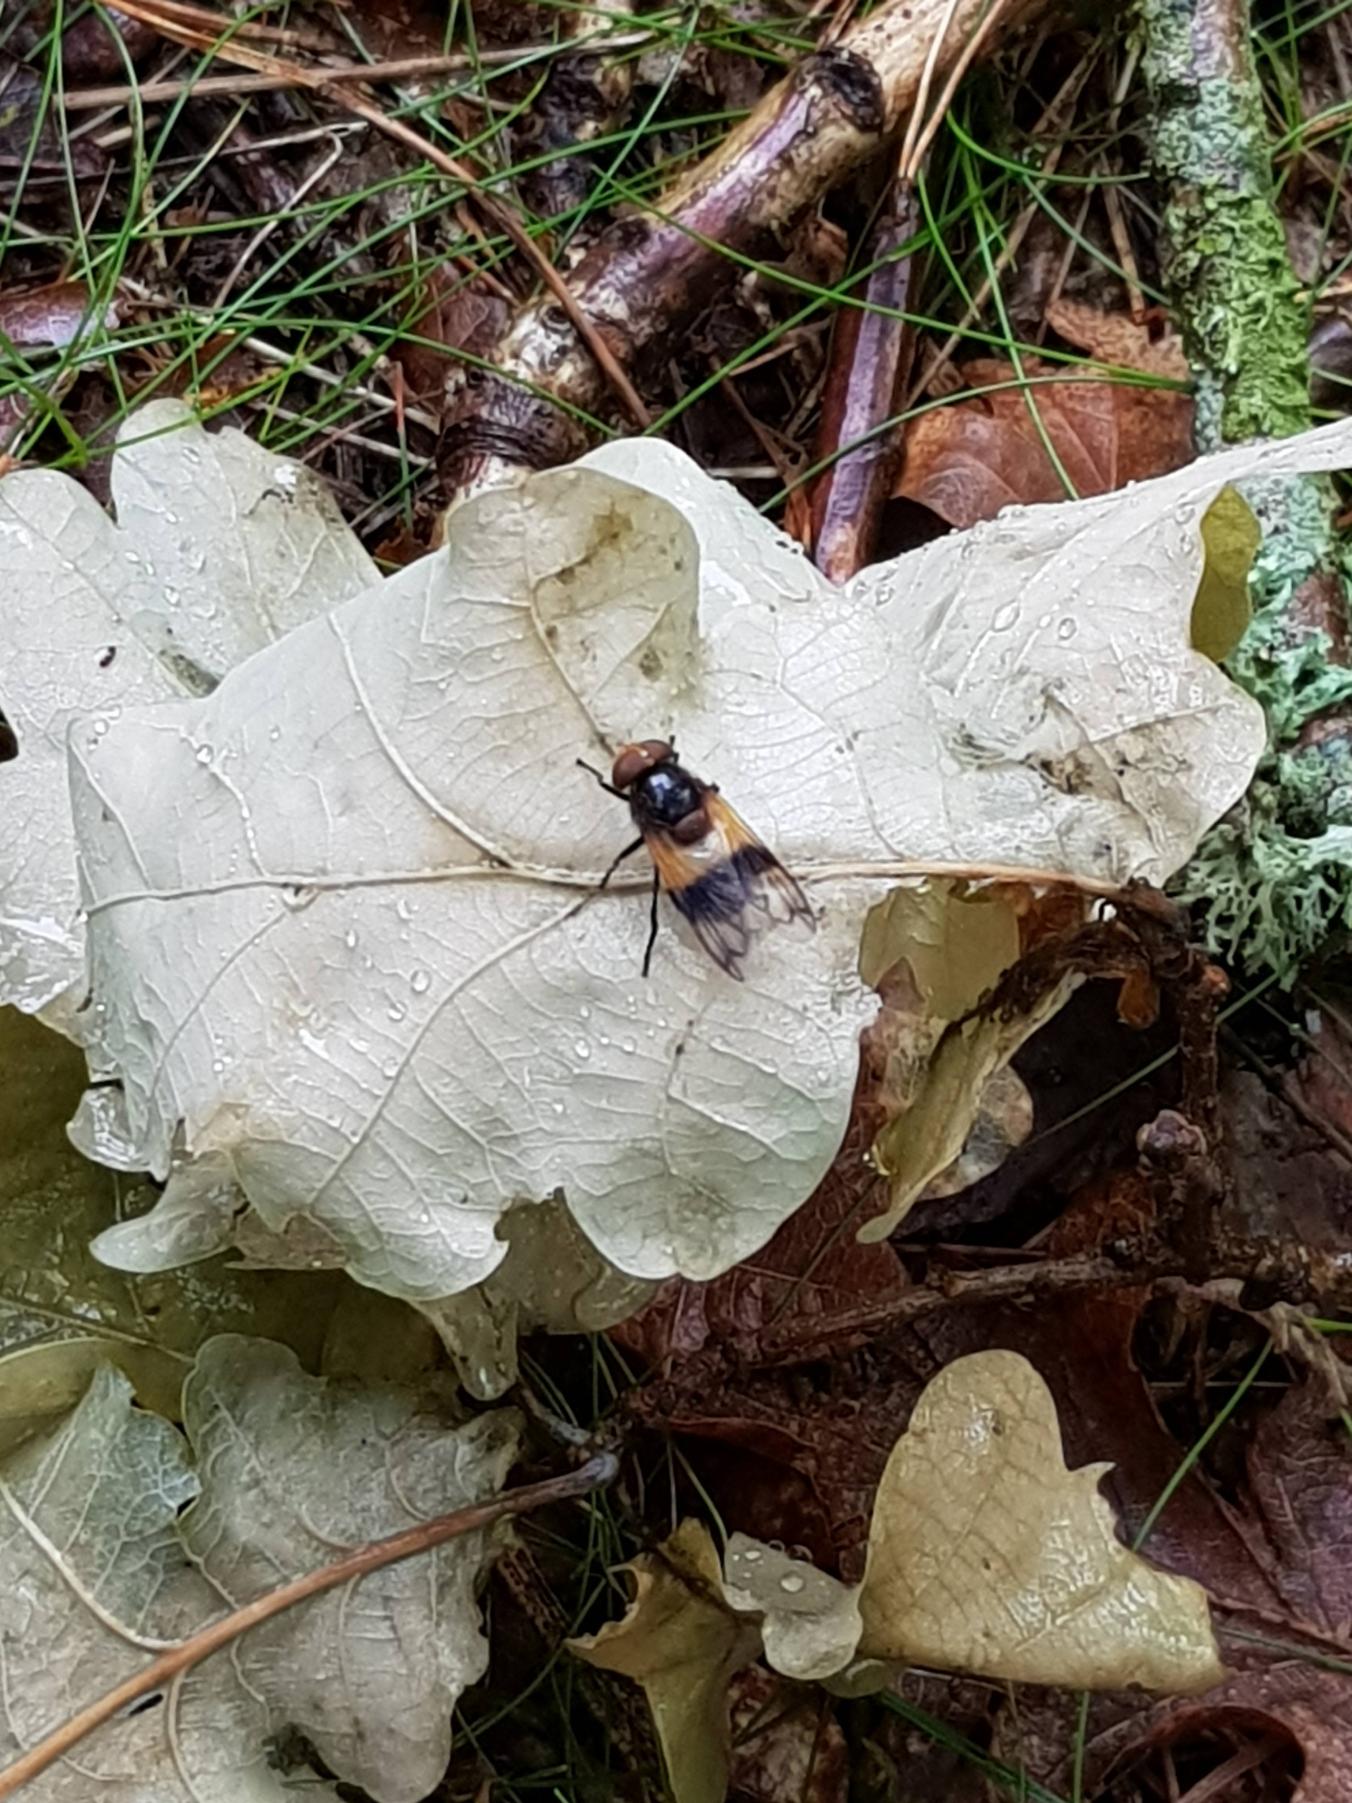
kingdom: Animalia
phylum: Arthropoda
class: Insecta
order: Diptera
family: Syrphidae
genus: Volucella
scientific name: Volucella pellucens
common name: Hvidbåndet humlesvirreflue
